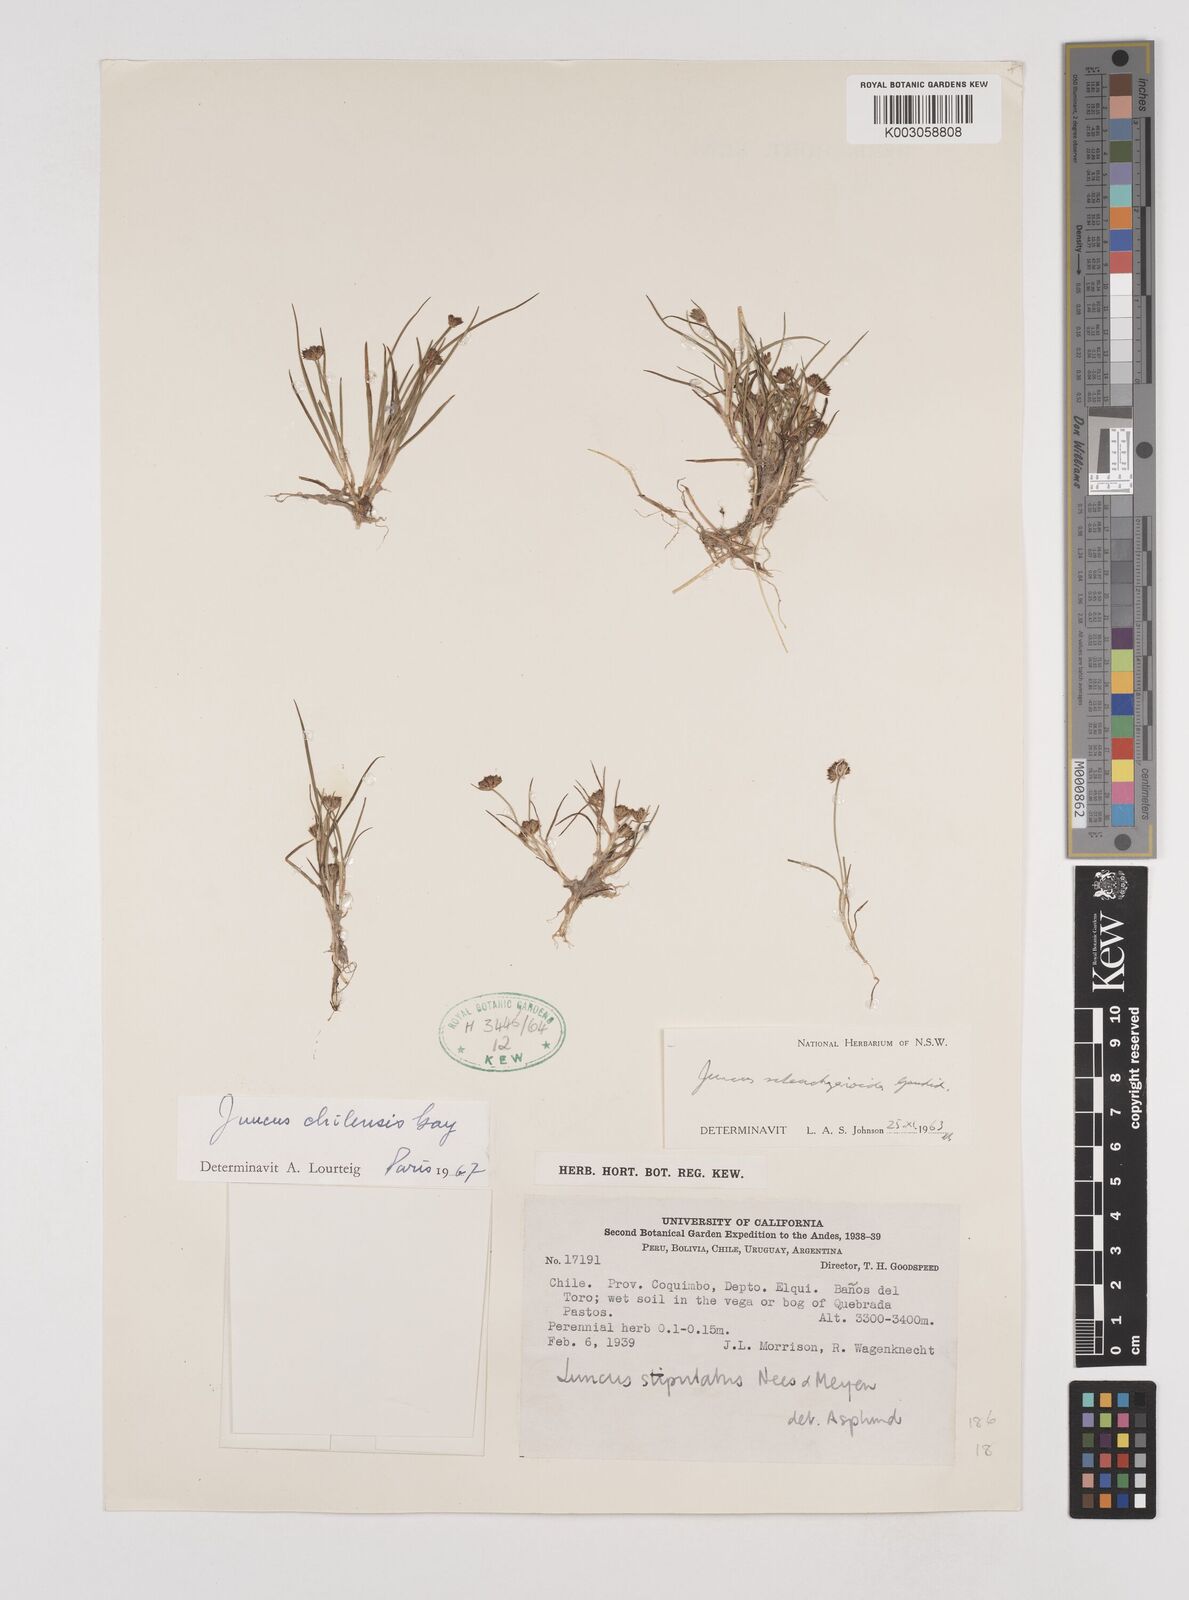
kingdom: Plantae
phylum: Tracheophyta
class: Liliopsida
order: Poales
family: Juncaceae
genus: Juncus
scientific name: Juncus scheuchzerioides
